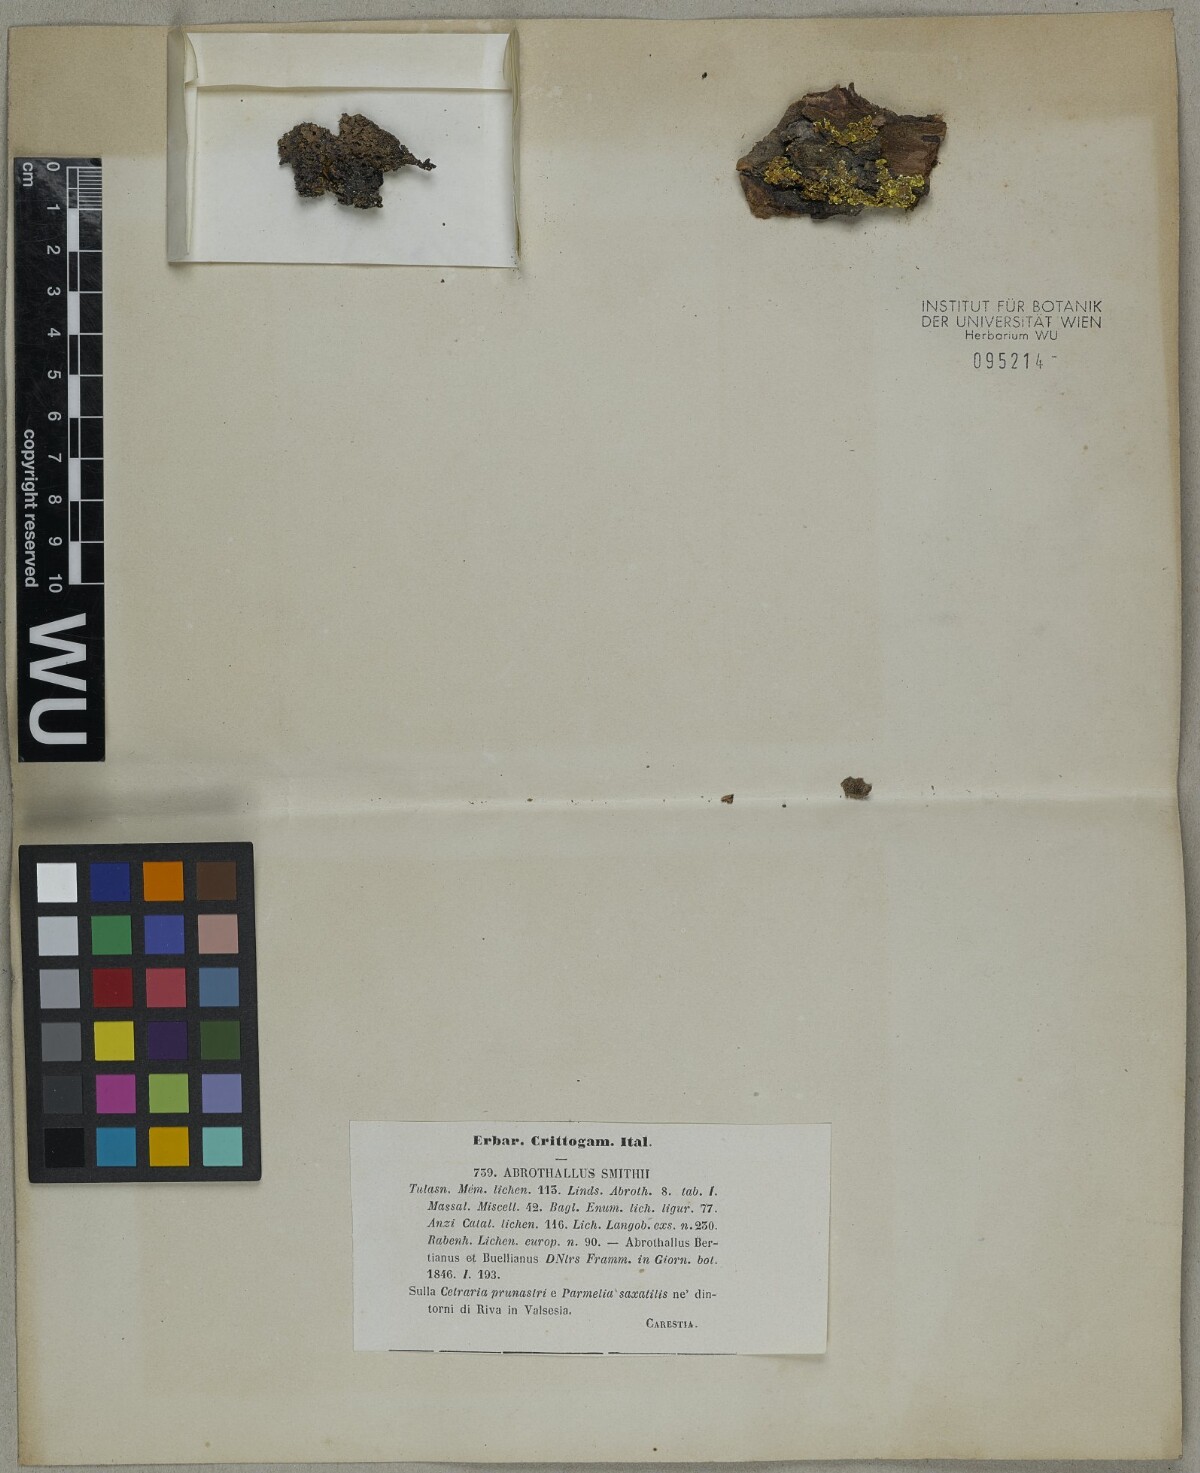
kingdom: Fungi
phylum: Ascomycota
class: Dothideomycetes
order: Abrothallales
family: Abrothallaceae
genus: Abrothallus
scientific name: Abrothallus parmeliarum
